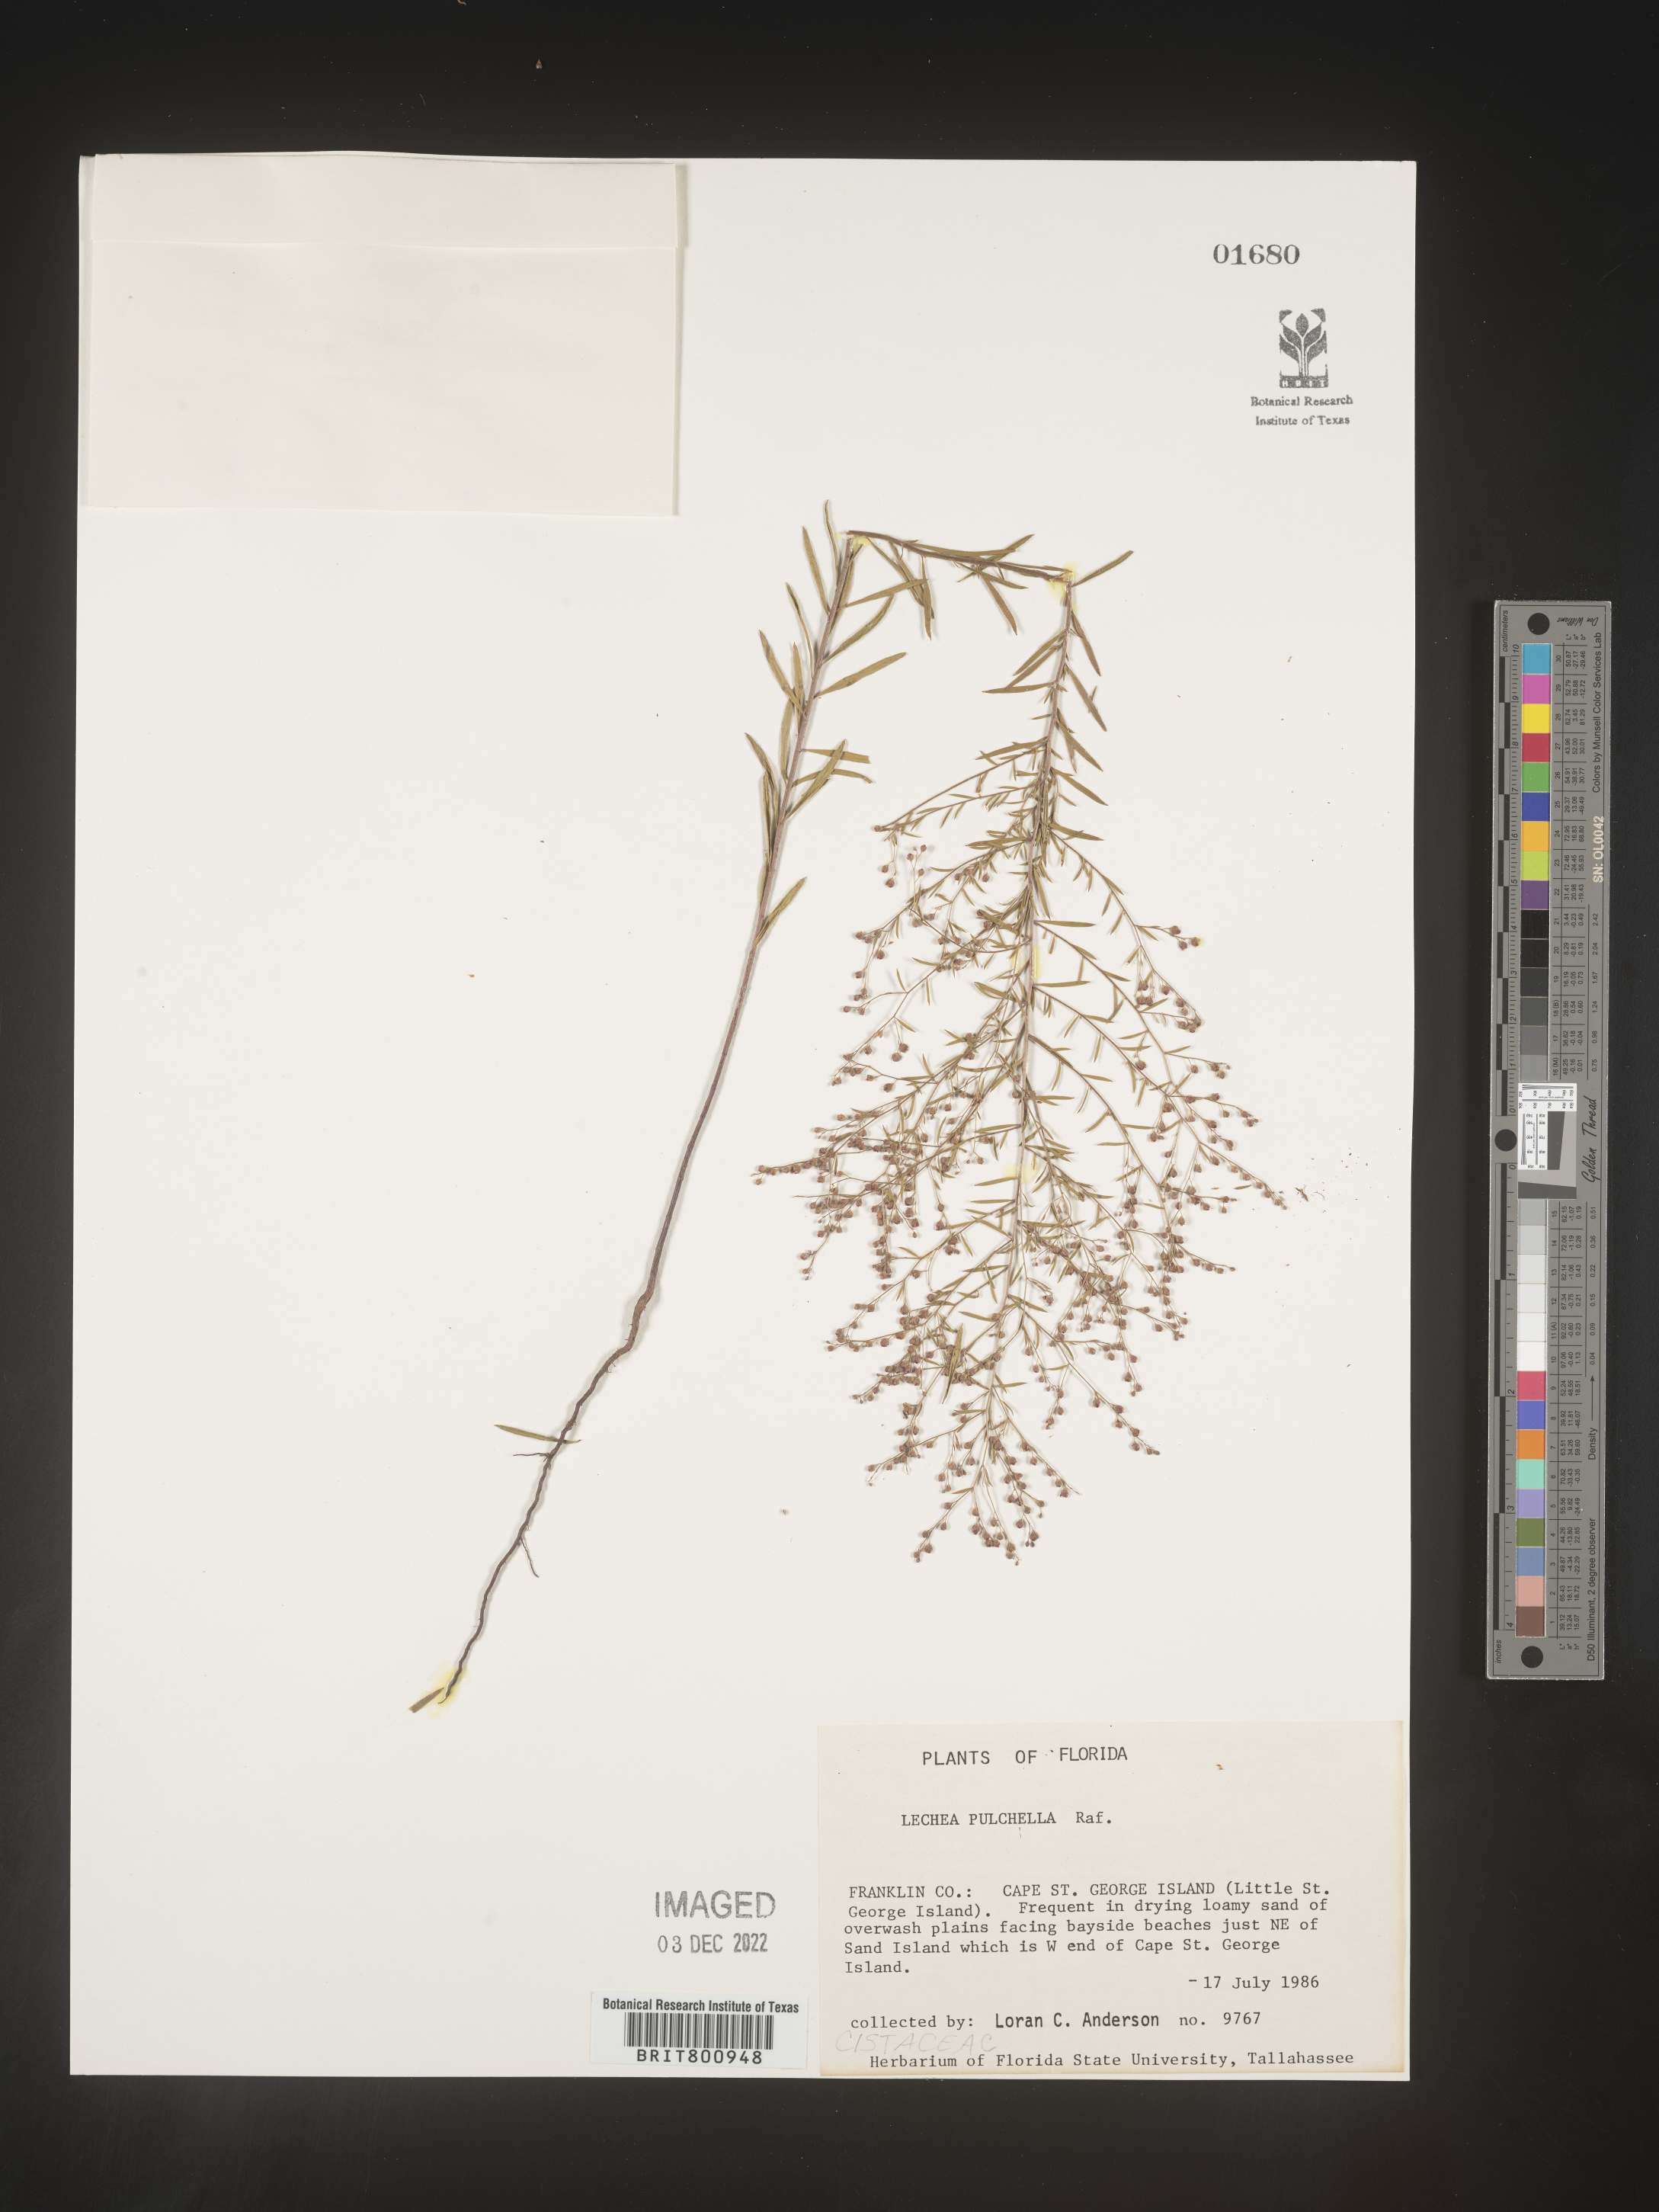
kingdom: Plantae
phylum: Tracheophyta
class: Magnoliopsida
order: Malvales
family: Cistaceae
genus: Lechea
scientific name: Lechea pulchella
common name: Leggett's pinweed
